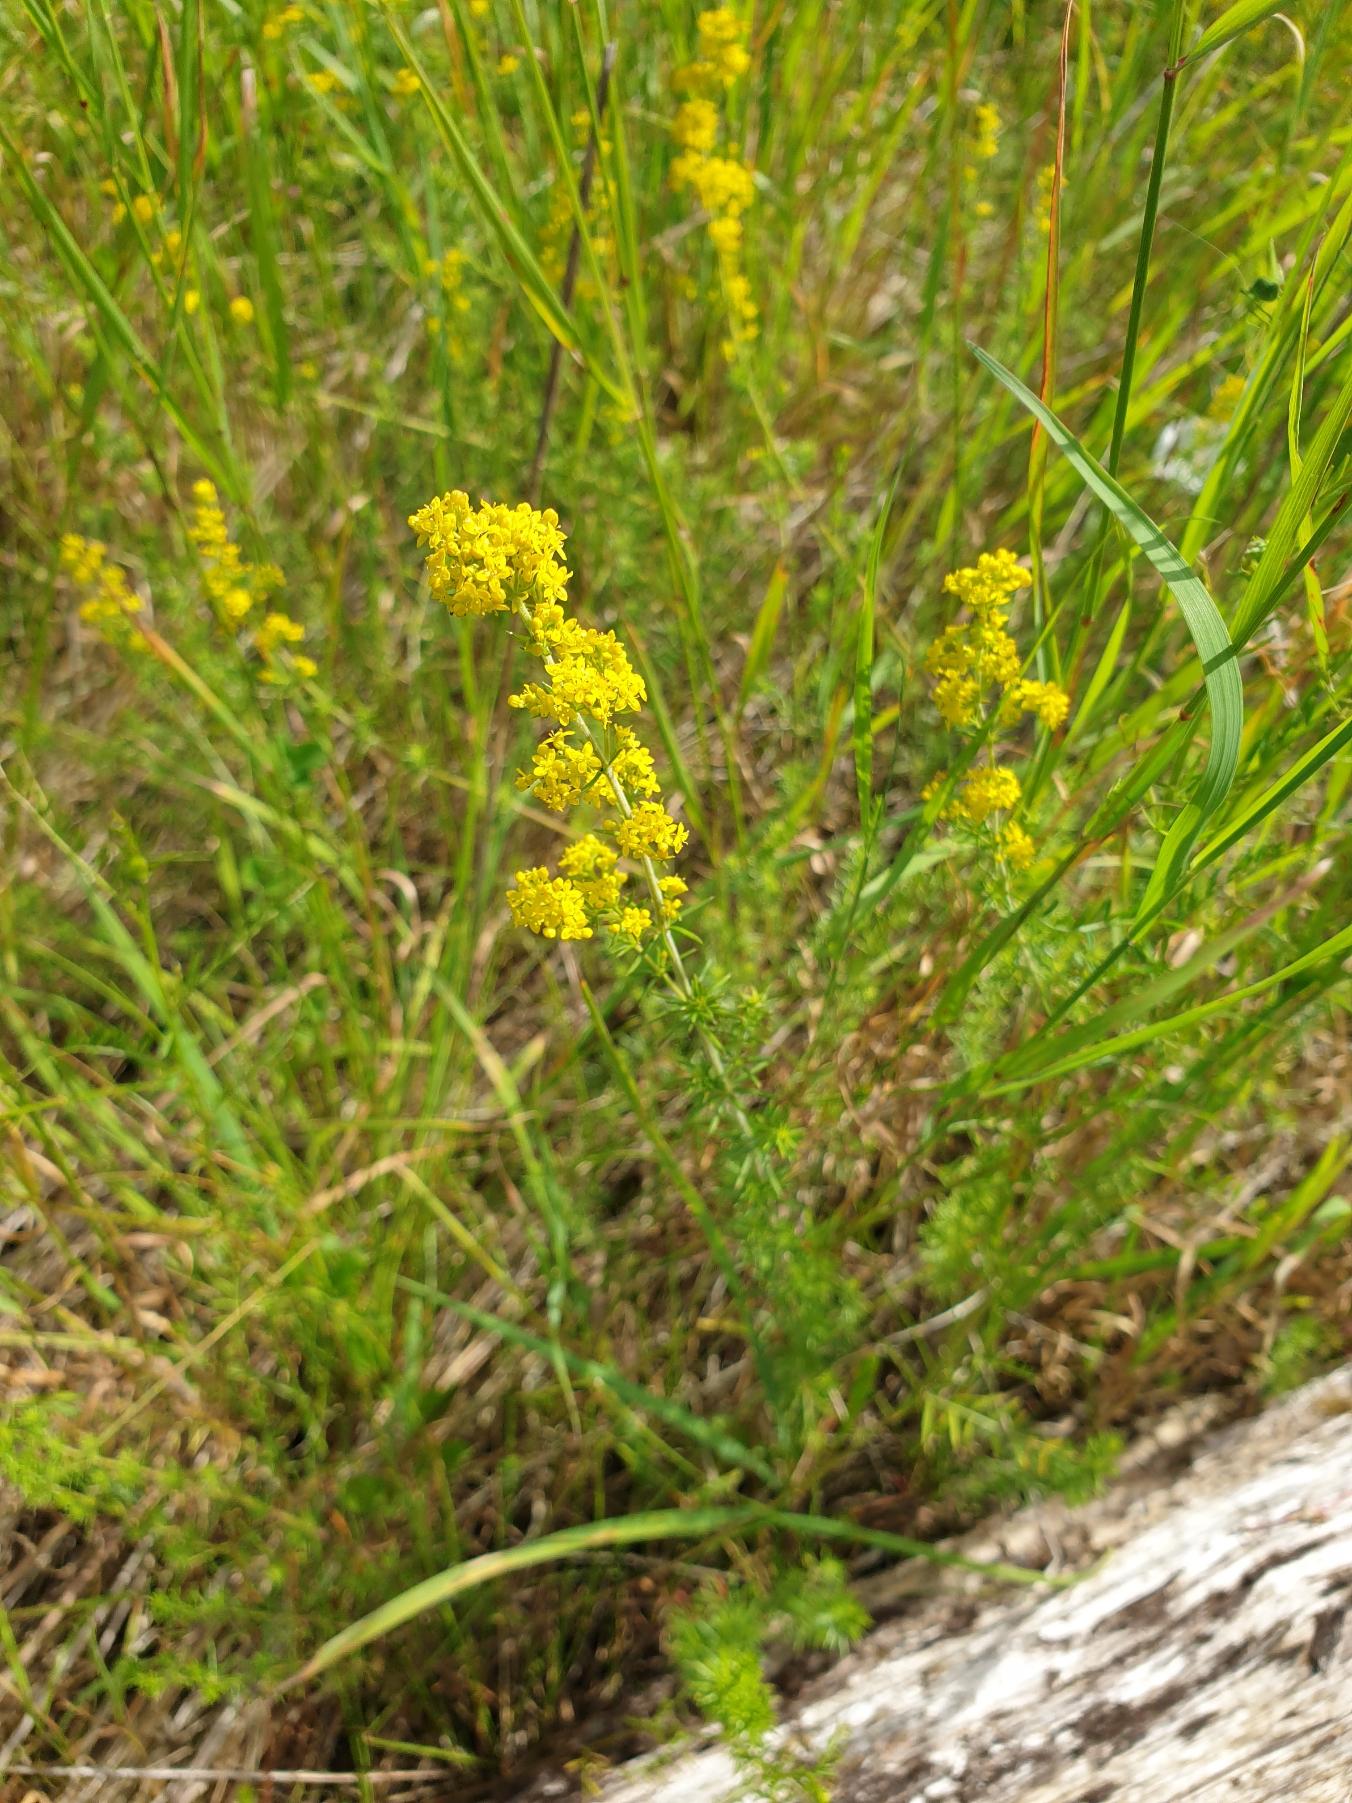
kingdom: Plantae
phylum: Tracheophyta
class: Magnoliopsida
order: Gentianales
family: Rubiaceae
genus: Galium
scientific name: Galium verum
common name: Gul snerre
